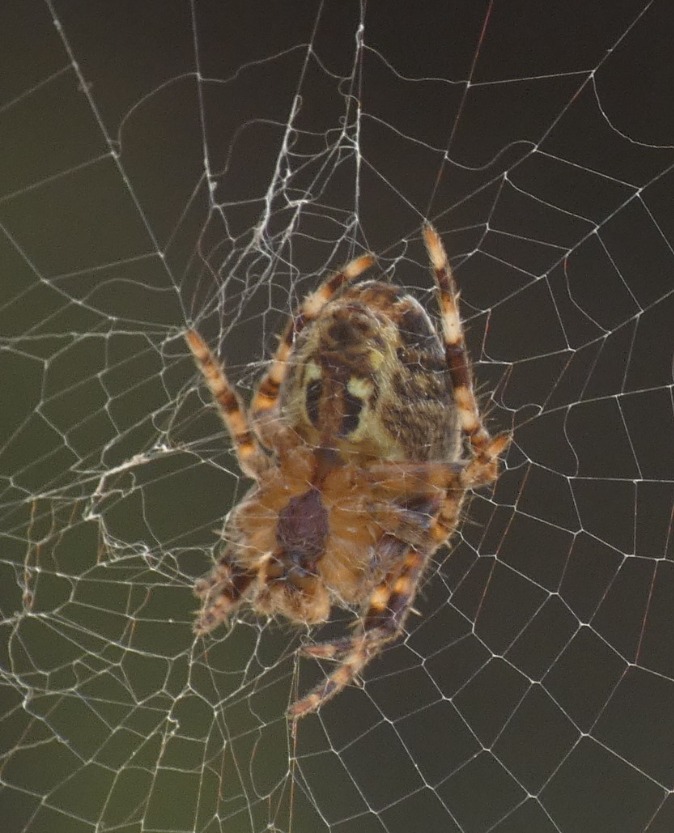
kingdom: Animalia
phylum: Arthropoda
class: Arachnida
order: Araneae
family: Araneidae
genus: Araneus
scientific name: Araneus diadematus
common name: Korsedderkop
